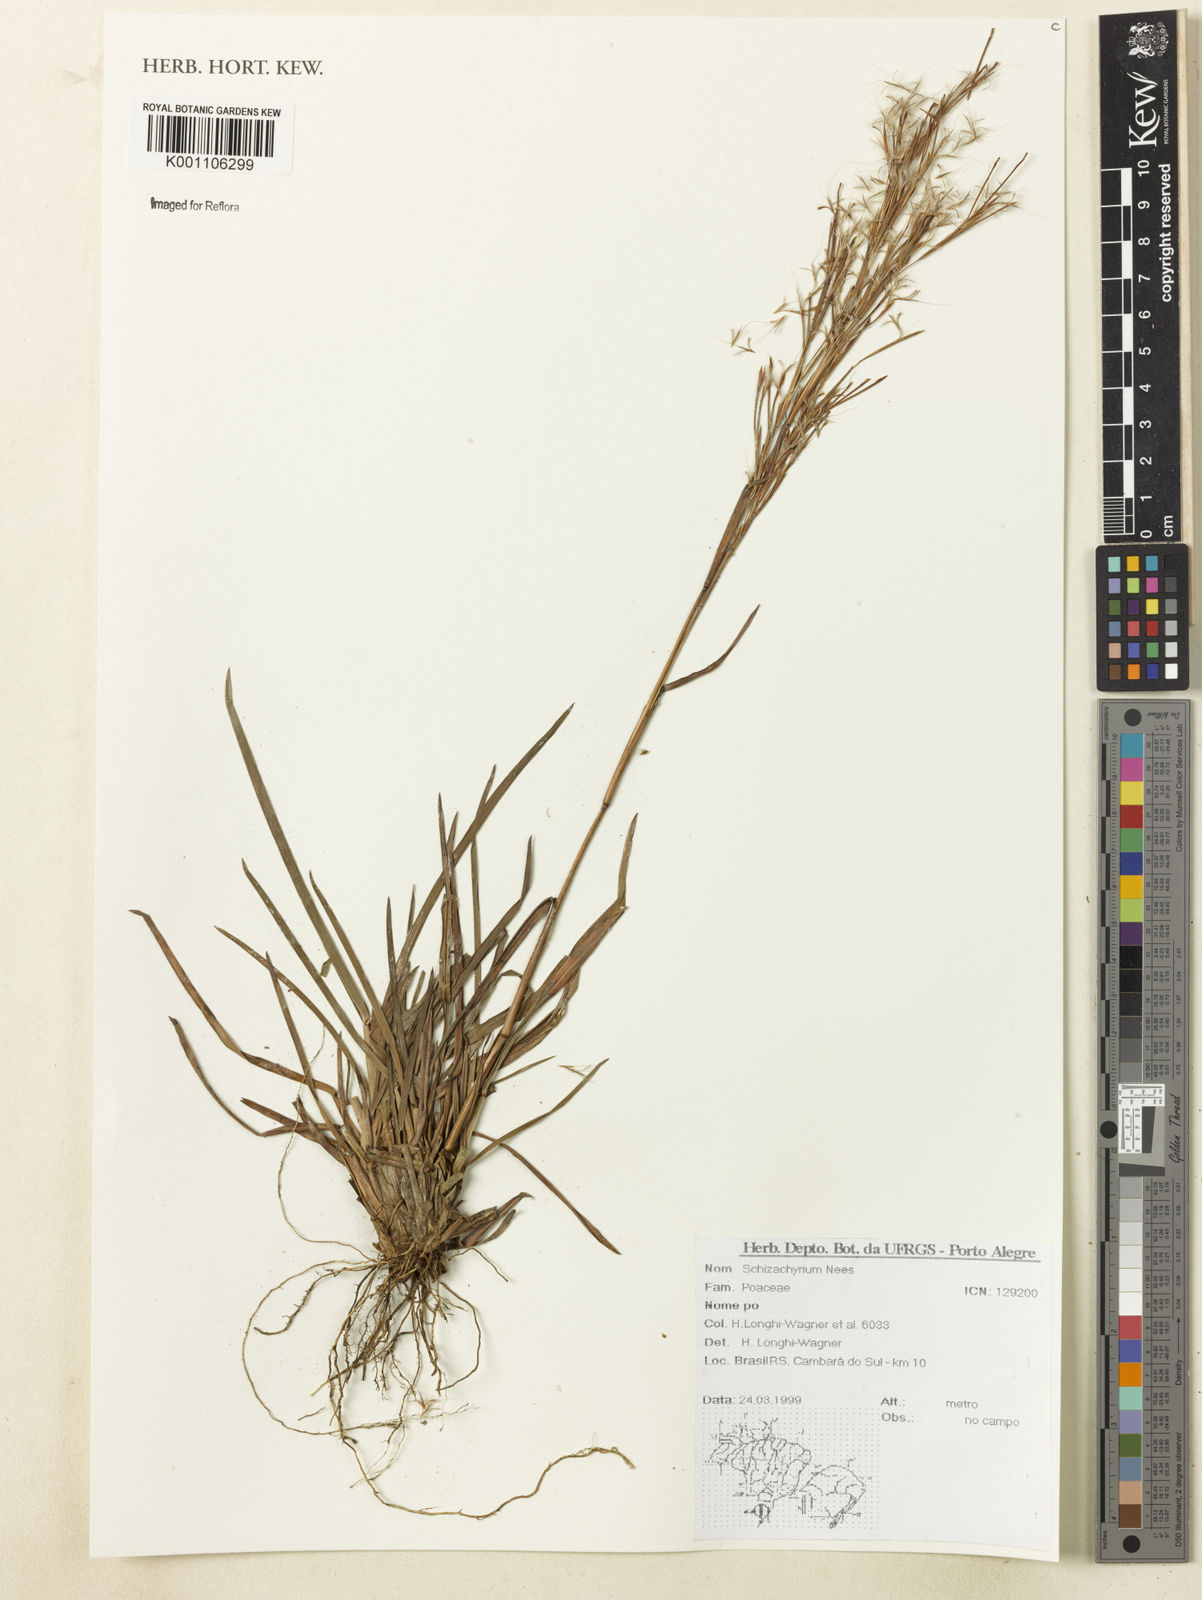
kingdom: Plantae
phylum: Tracheophyta
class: Liliopsida
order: Poales
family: Poaceae
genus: Schizachyrium
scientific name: Schizachyrium
